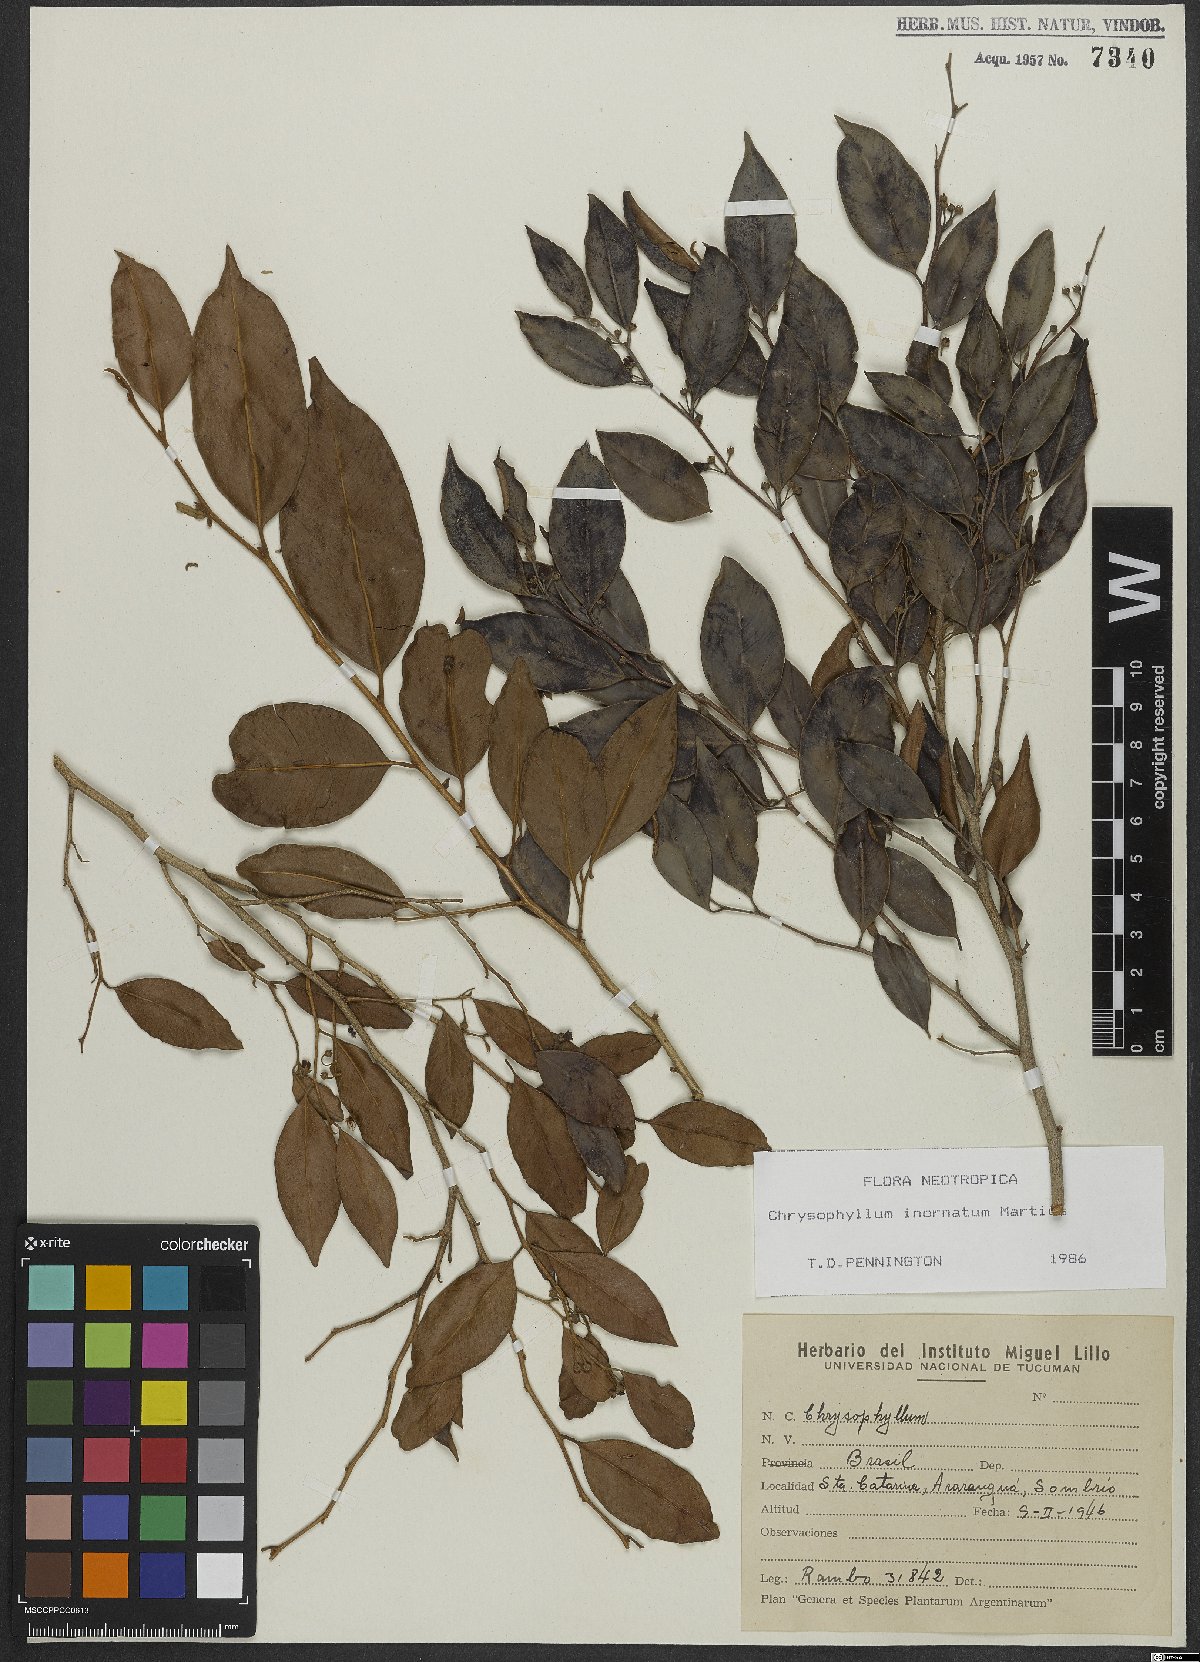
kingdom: Plantae
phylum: Tracheophyta
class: Magnoliopsida
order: Ericales
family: Sapotaceae
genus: Chrysophyllum
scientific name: Chrysophyllum inornatum
